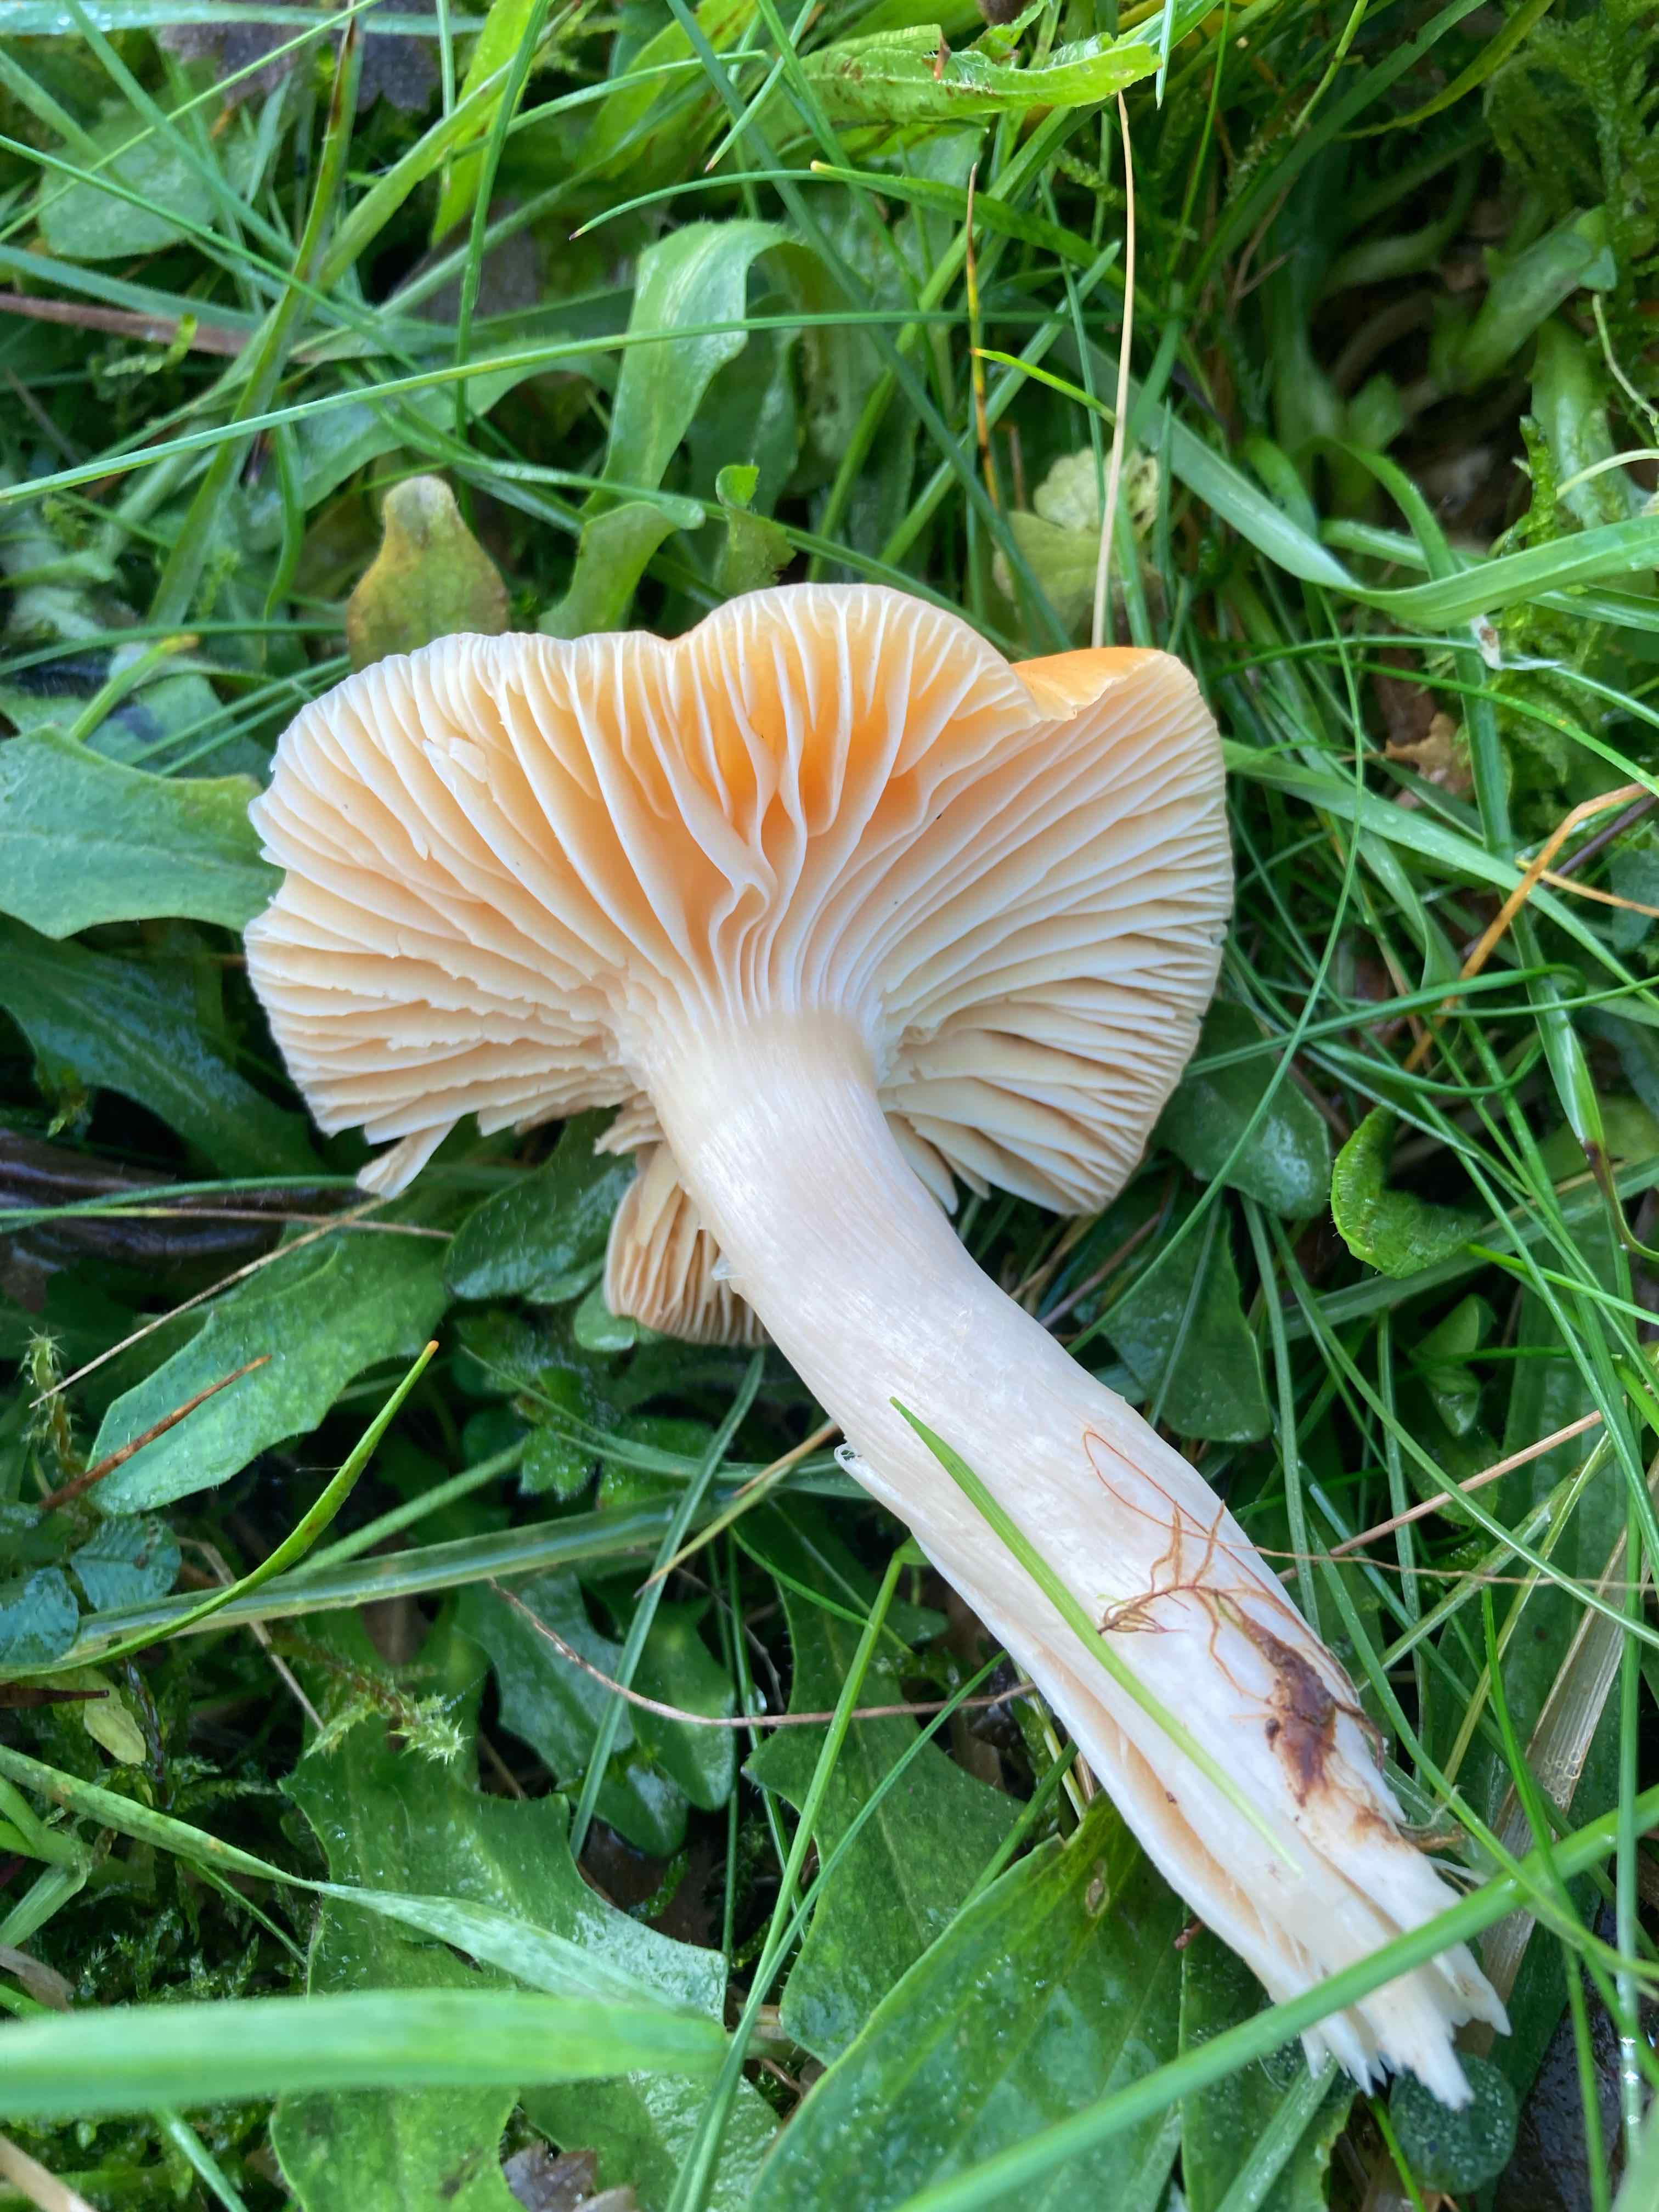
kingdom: Fungi
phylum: Basidiomycota
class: Agaricomycetes
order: Agaricales
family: Hygrophoraceae
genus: Cuphophyllus
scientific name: Cuphophyllus pratensis
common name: eng-vokshat
